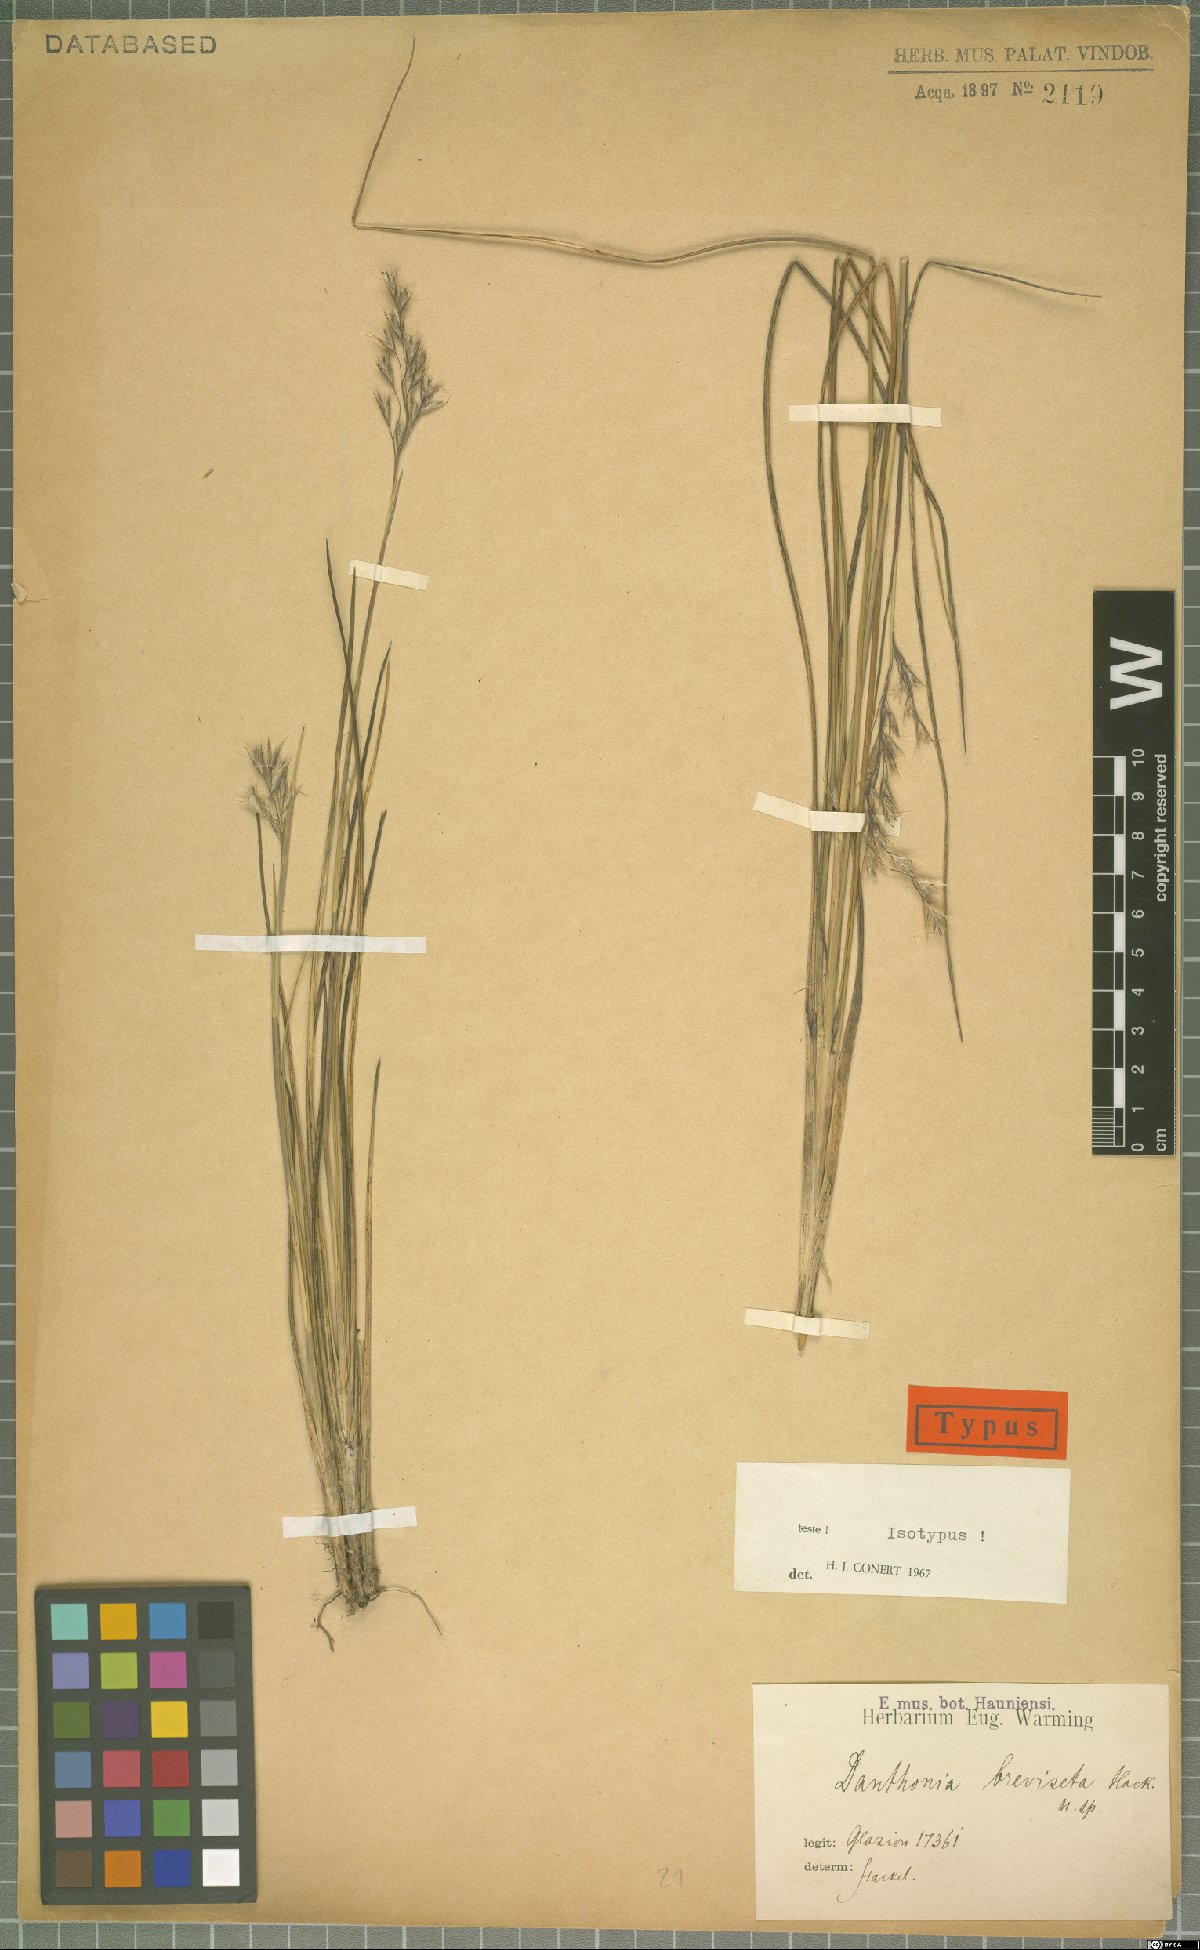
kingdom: Plantae
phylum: Tracheophyta
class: Liliopsida
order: Poales
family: Poaceae
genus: Danthonia
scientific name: Danthonia breviseta
